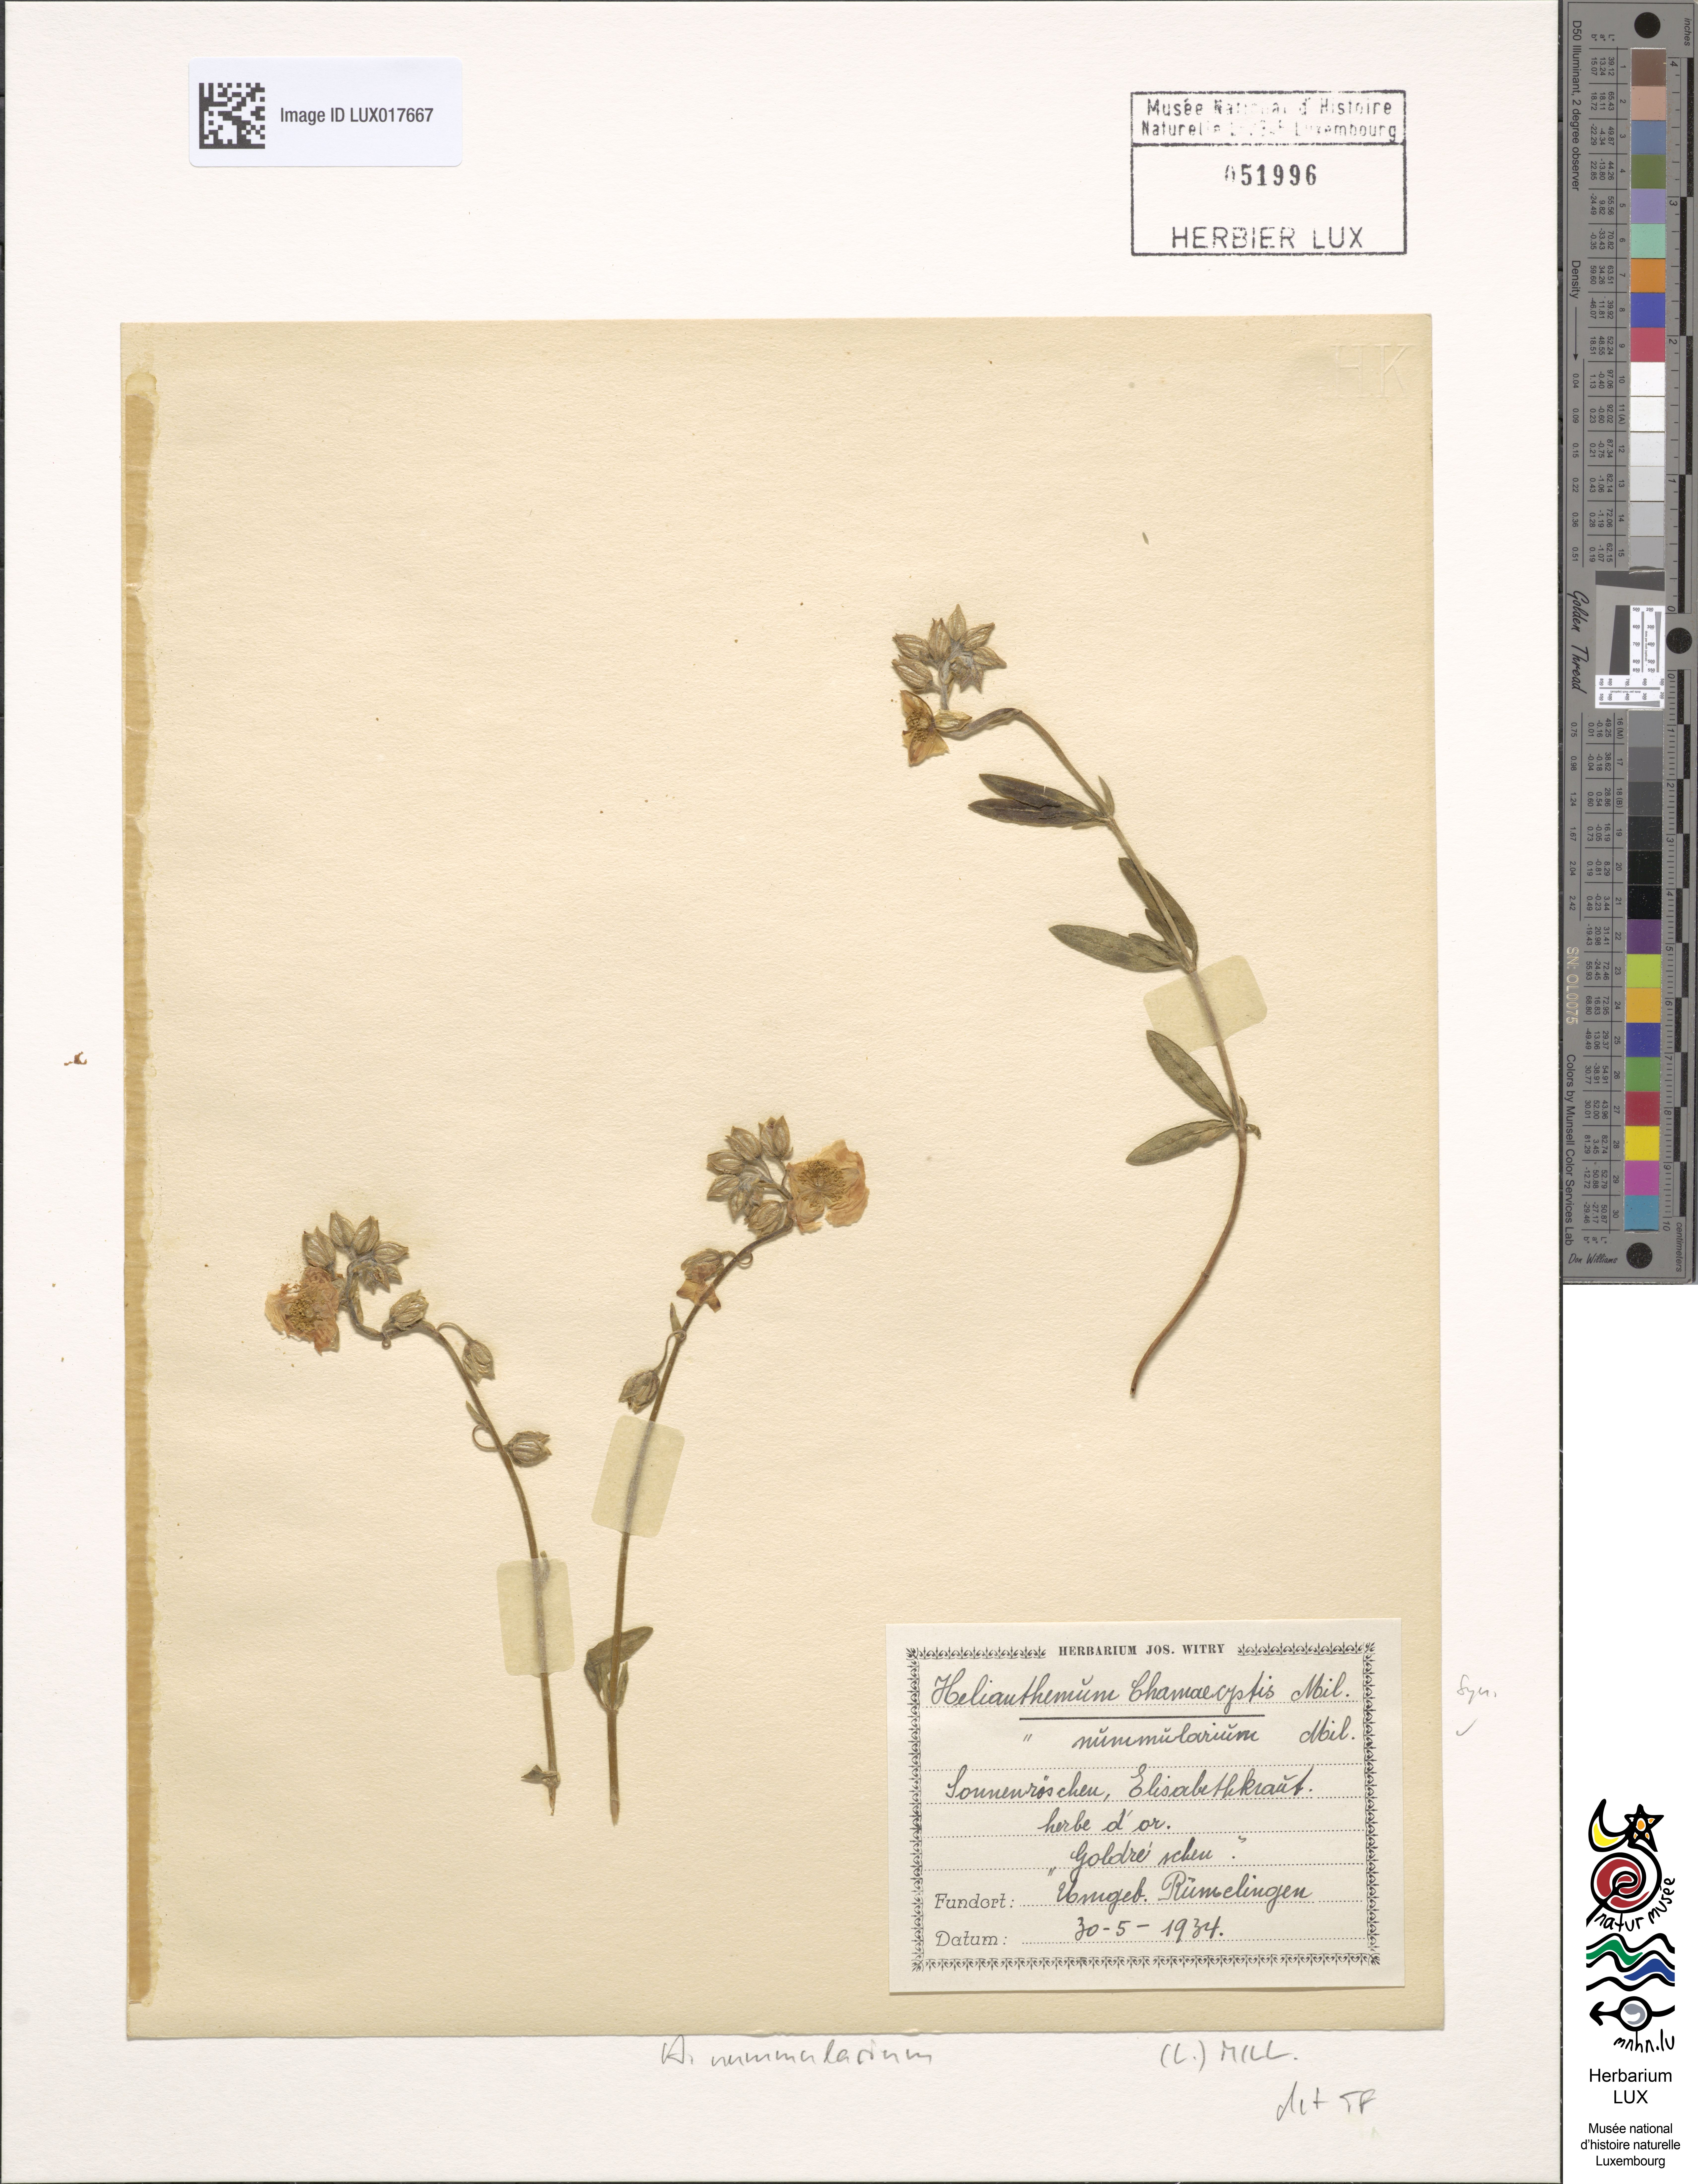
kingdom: Plantae
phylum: Tracheophyta
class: Magnoliopsida
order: Malvales
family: Cistaceae
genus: Helianthemum
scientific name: Helianthemum nummularium
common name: Common rock-rose
